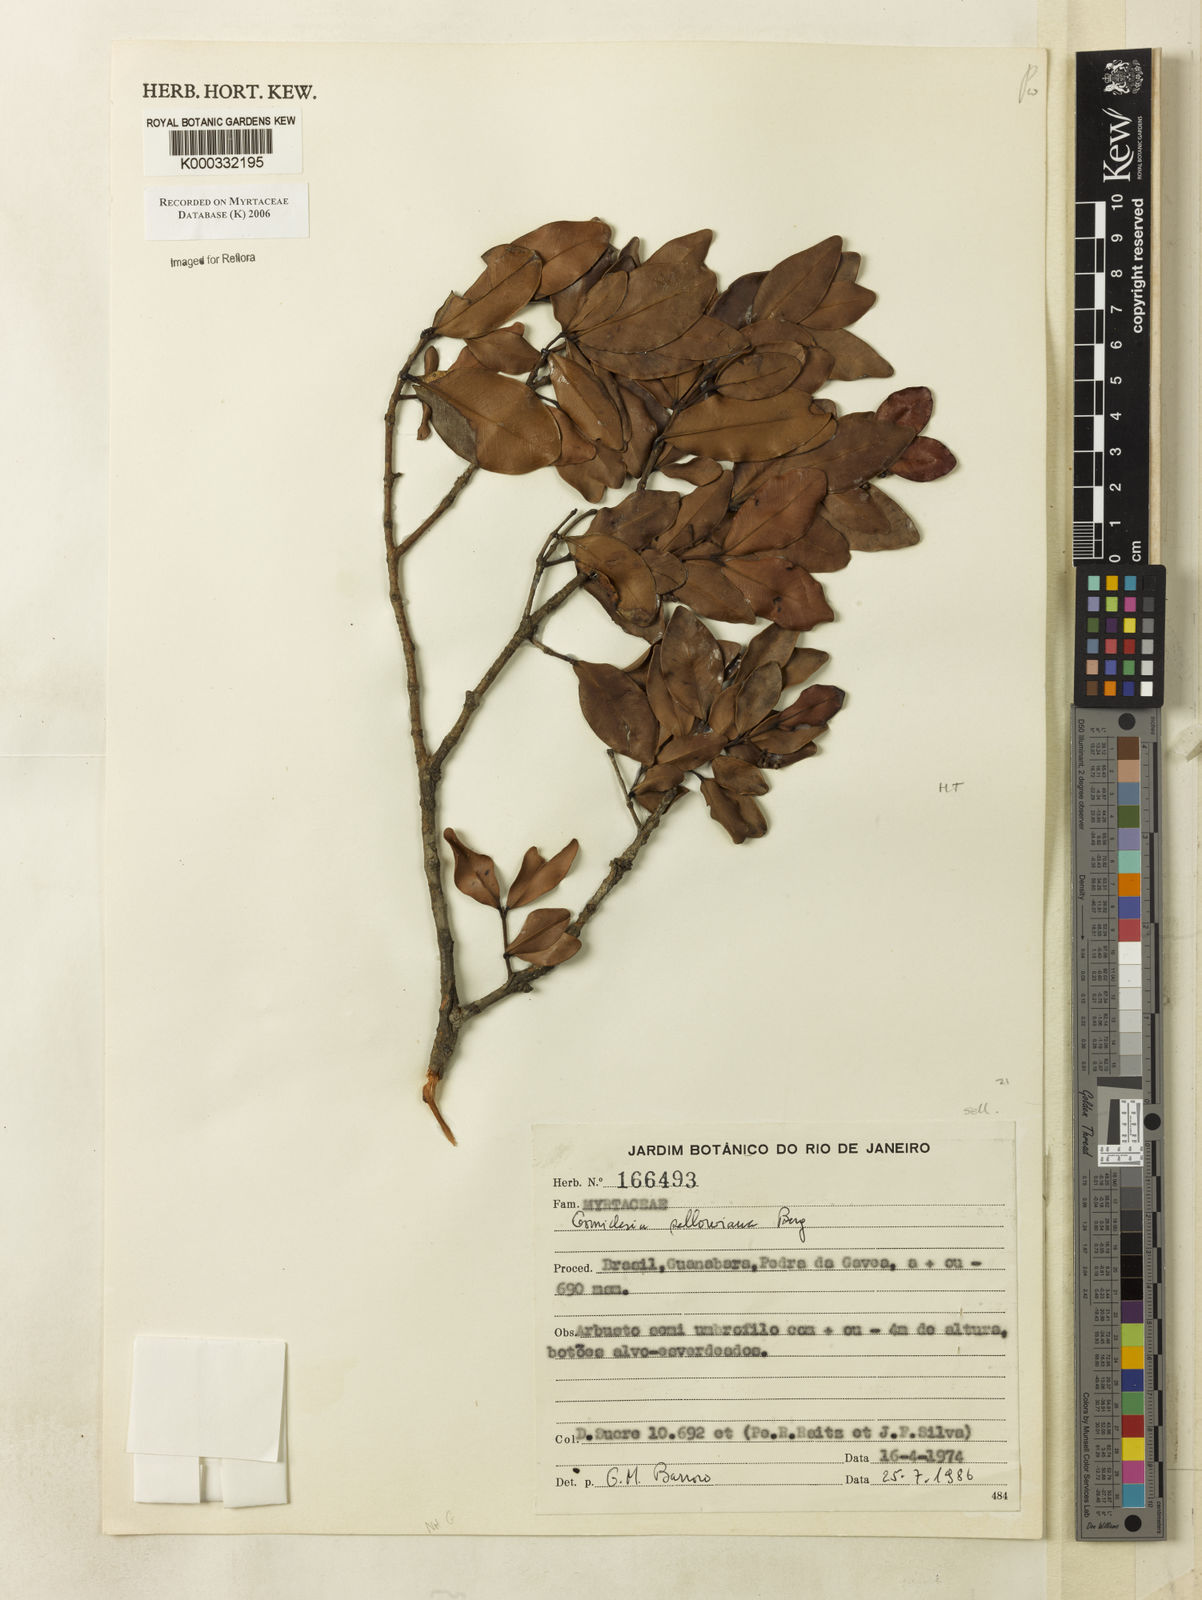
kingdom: Plantae
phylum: Tracheophyta
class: Magnoliopsida
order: Myrtales
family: Myrtaceae
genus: Myrcia
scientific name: Myrcia hartwegiana
